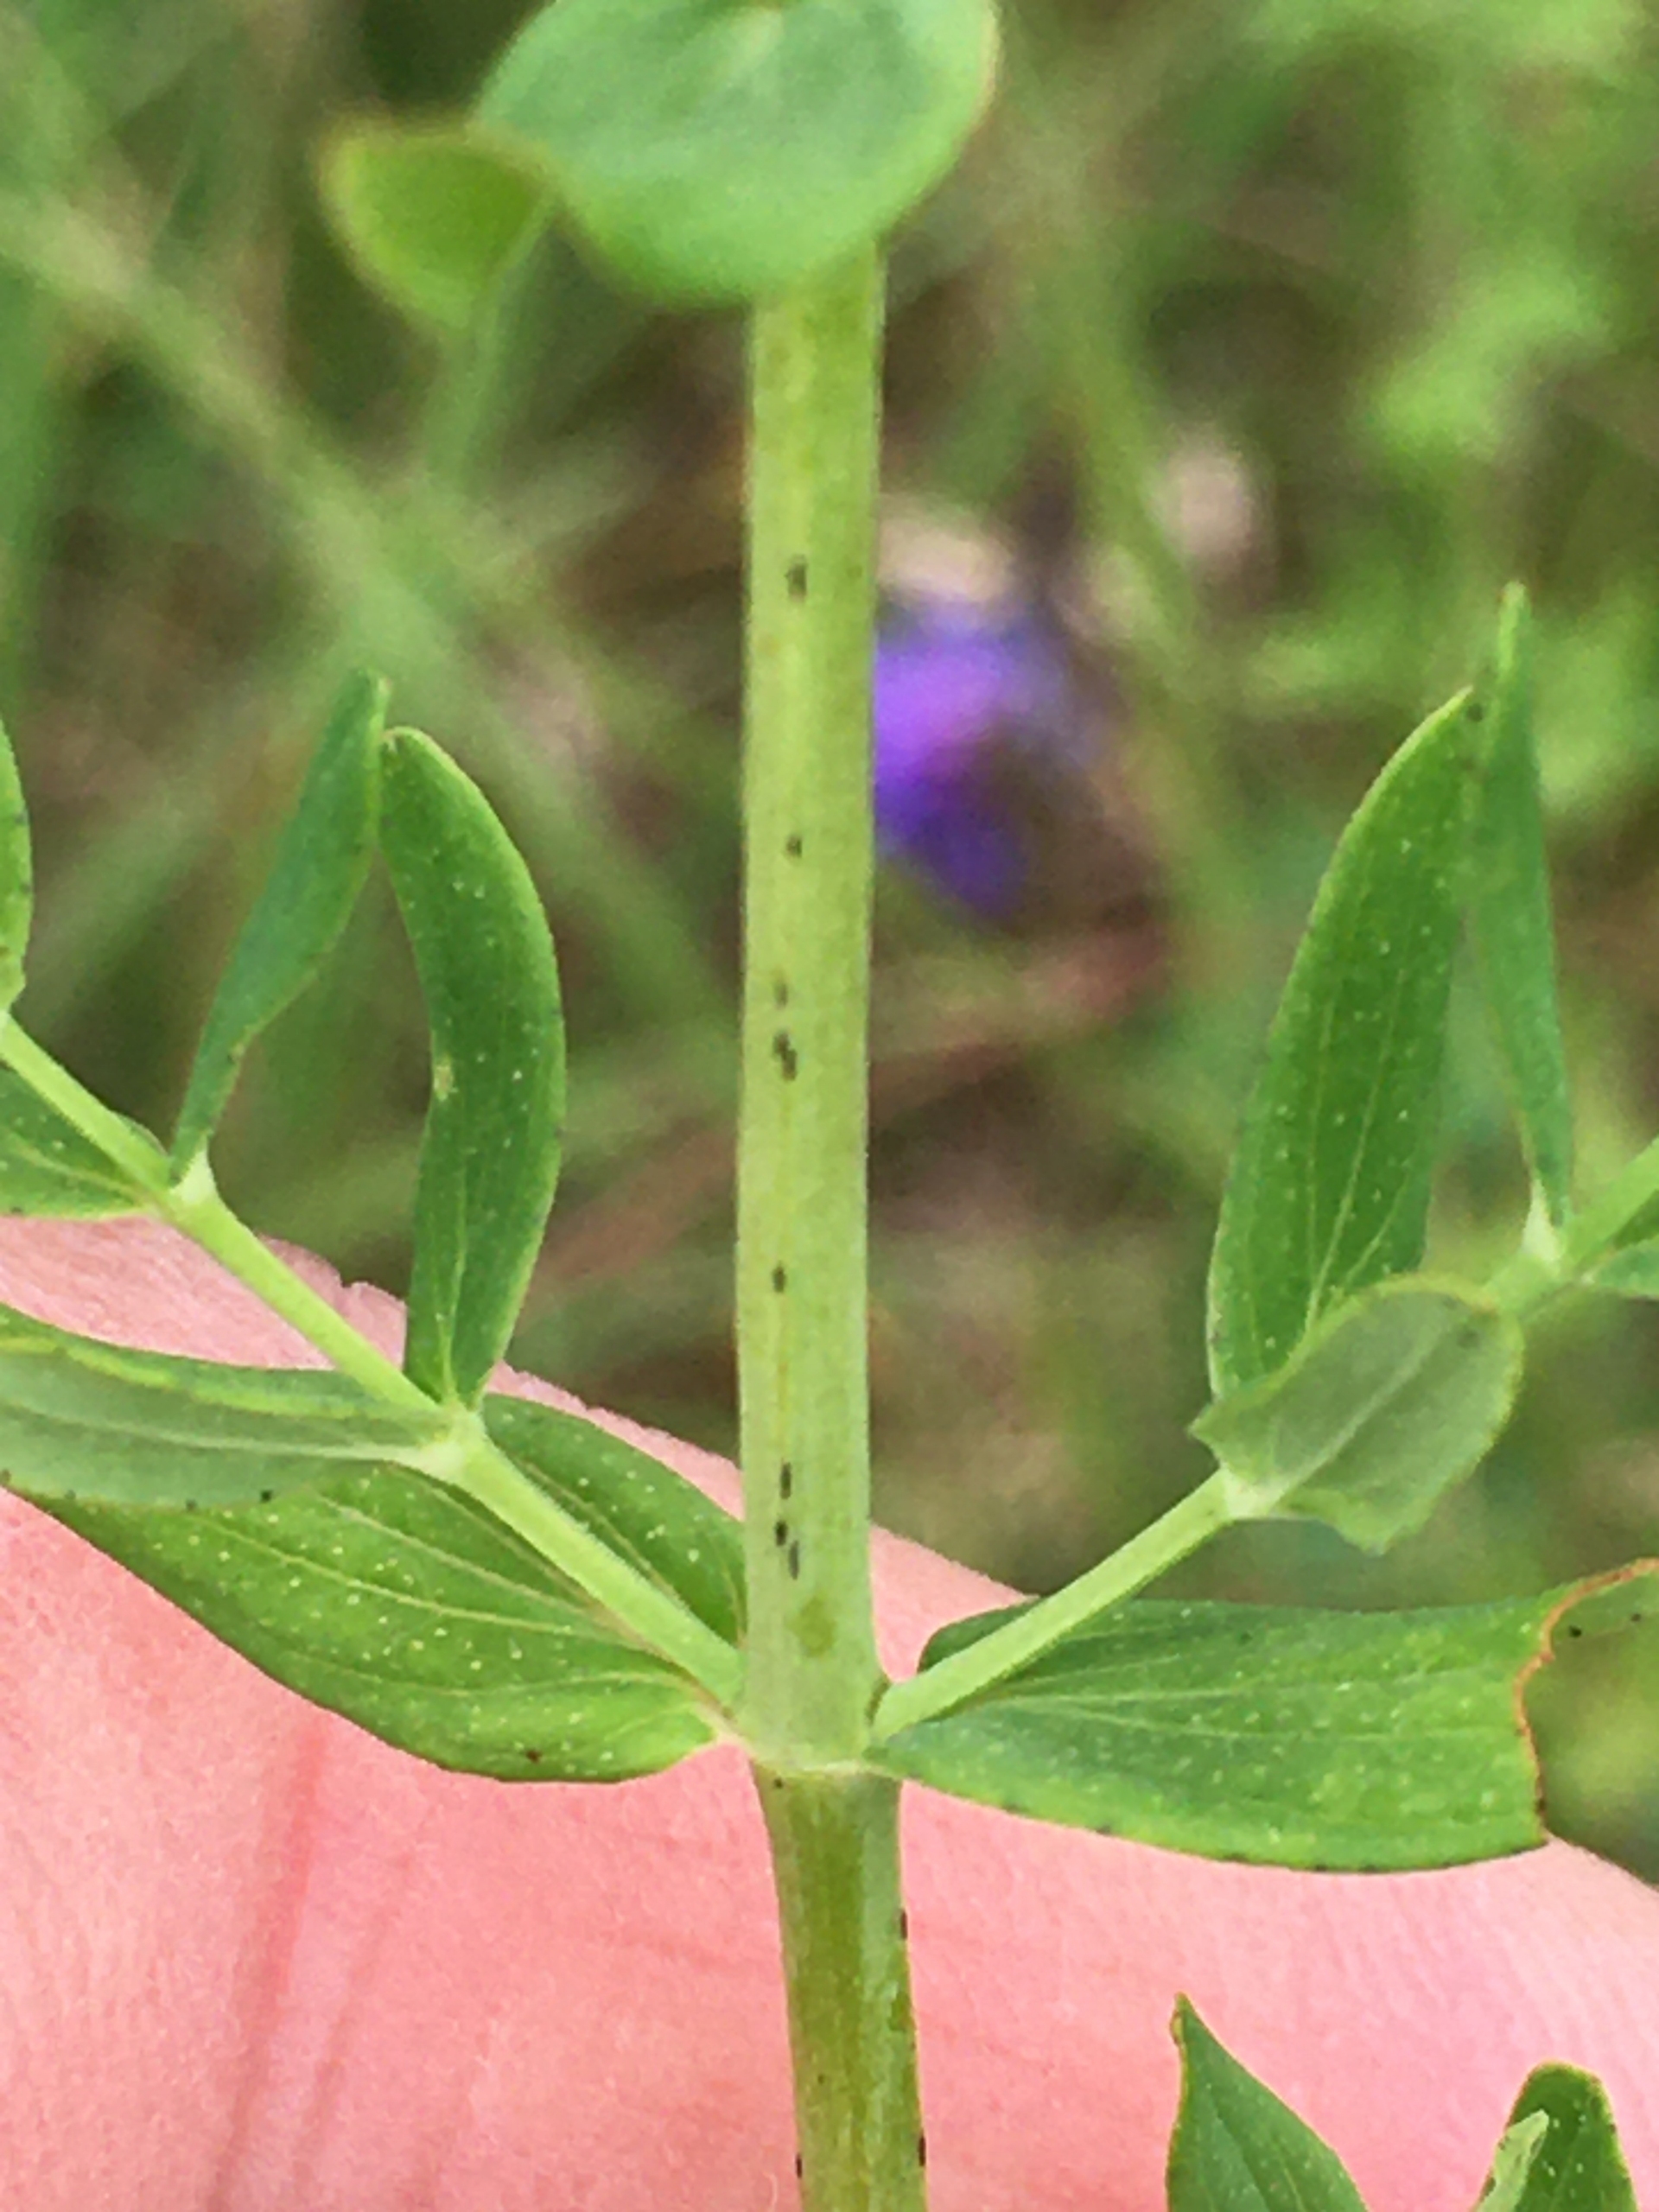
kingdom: Plantae
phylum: Tracheophyta
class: Magnoliopsida
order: Malpighiales
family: Hypericaceae
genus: Hypericum
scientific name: Hypericum perforatum
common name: Prikbladet perikon
